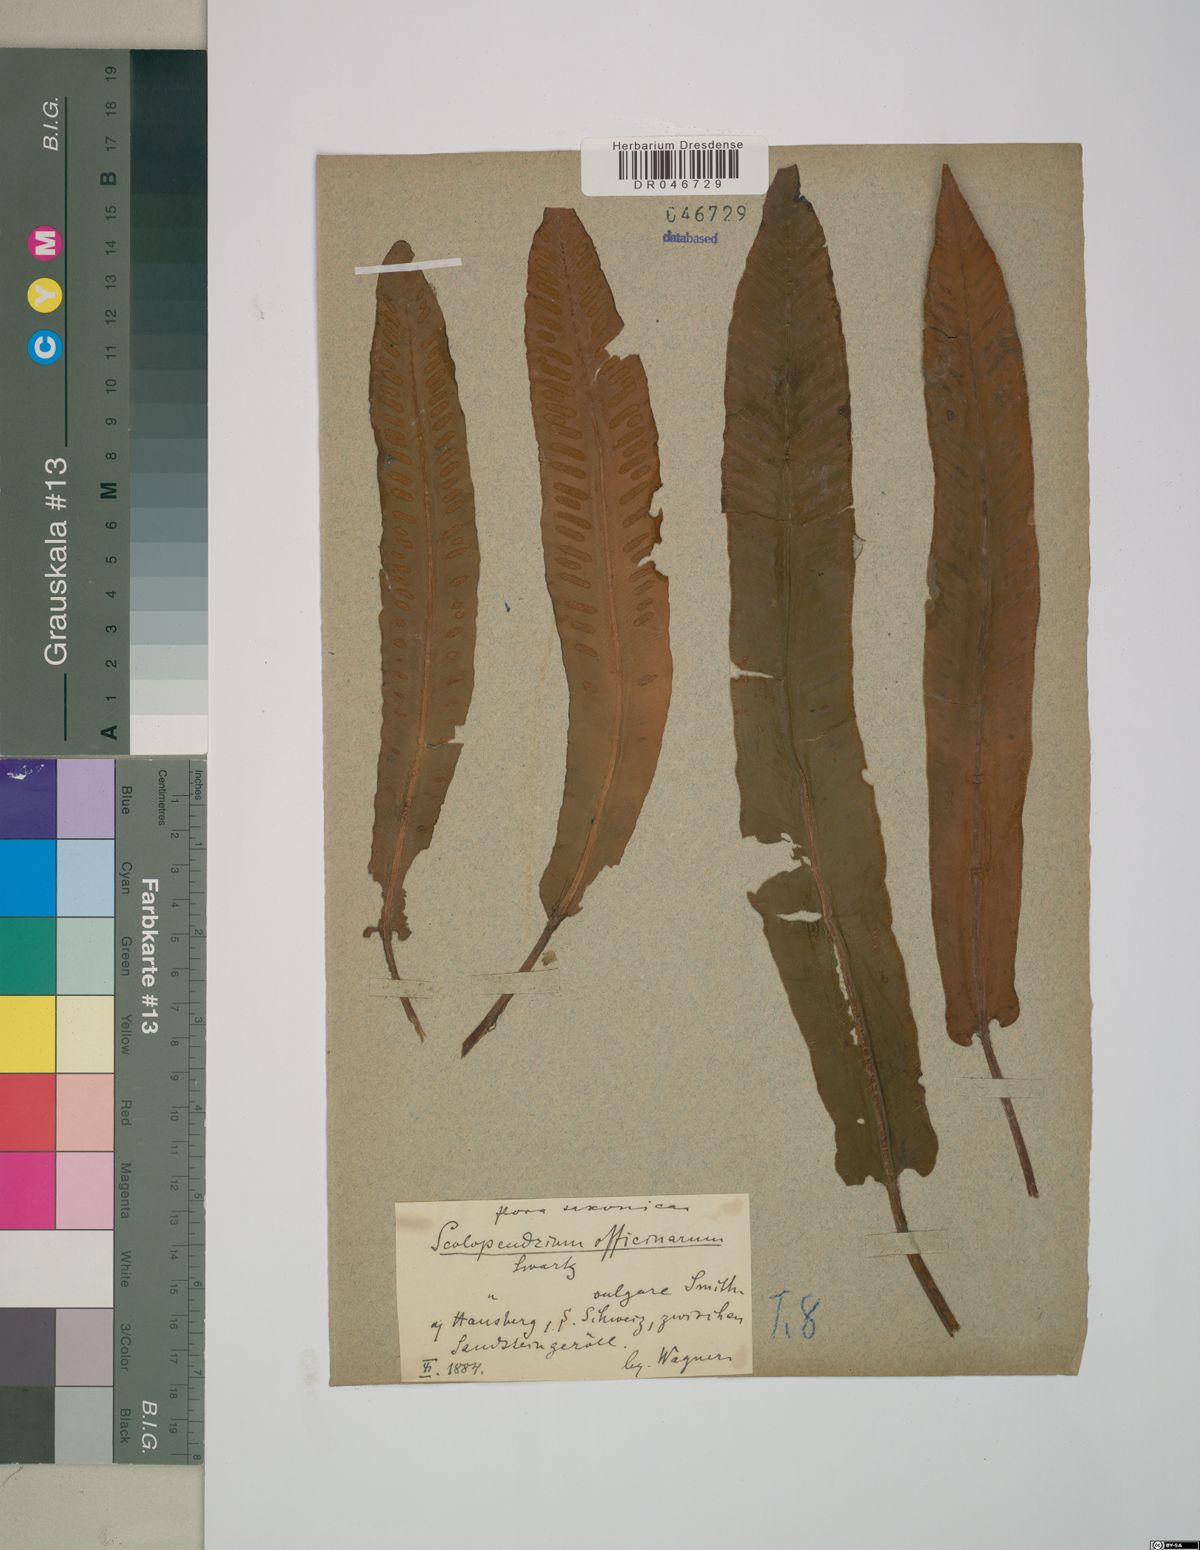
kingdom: Plantae
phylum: Tracheophyta
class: Polypodiopsida
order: Polypodiales
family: Aspleniaceae
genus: Asplenium
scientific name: Asplenium scolopendrium
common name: Hart's-tongue fern
